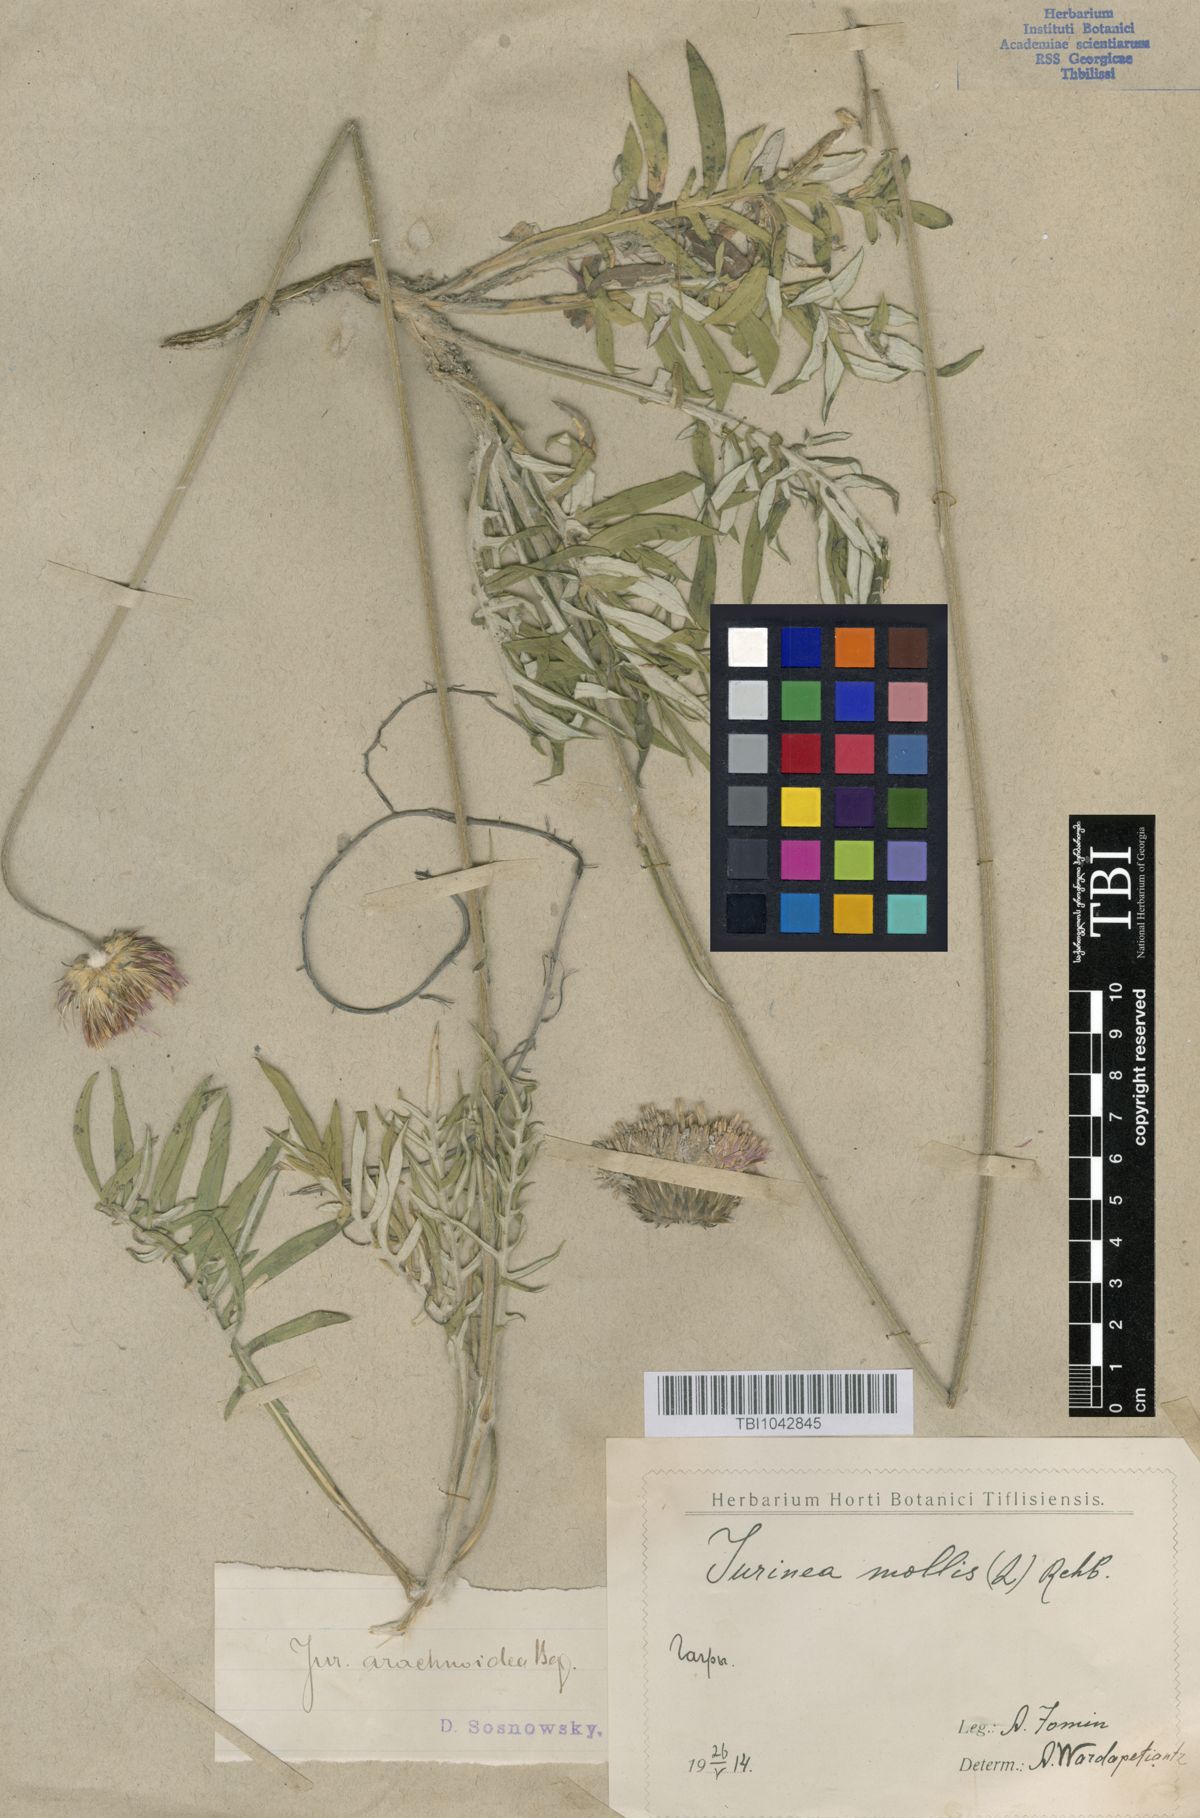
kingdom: Plantae
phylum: Tracheophyta
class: Magnoliopsida
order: Asterales
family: Asteraceae
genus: Jurinea
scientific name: Jurinea blanda
